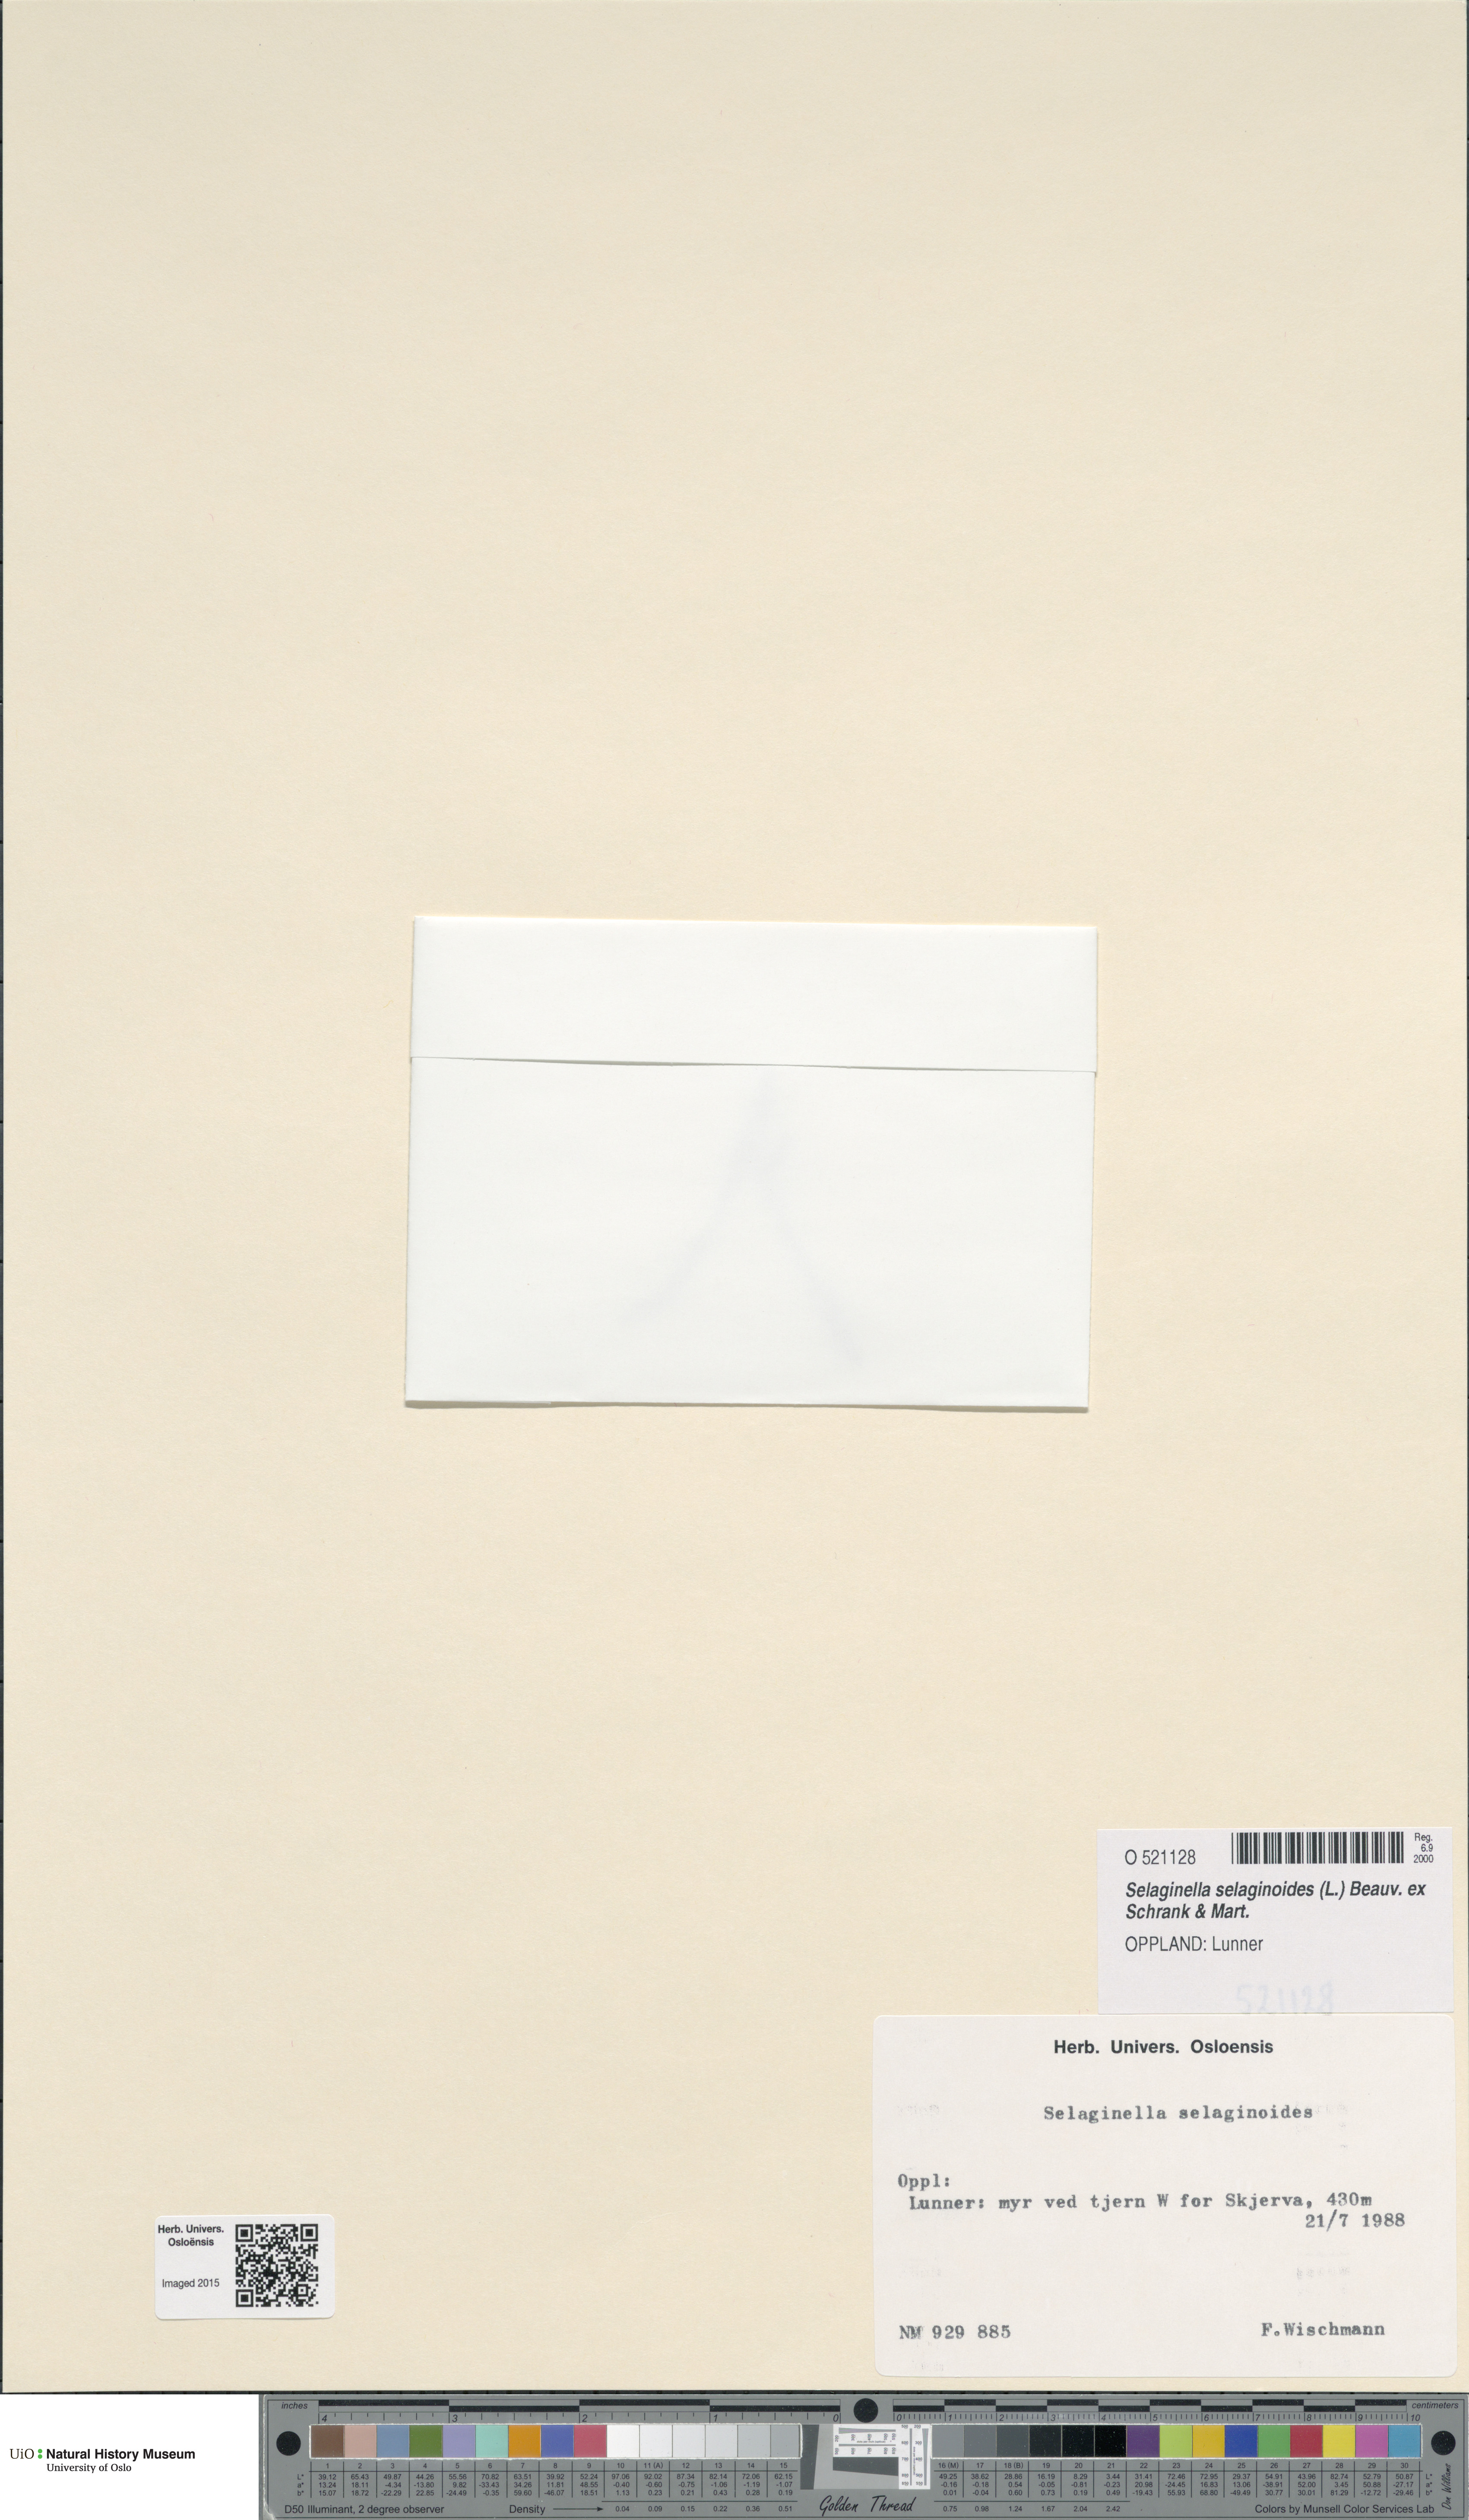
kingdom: Plantae
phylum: Tracheophyta
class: Lycopodiopsida
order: Selaginellales
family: Selaginellaceae
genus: Selaginella
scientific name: Selaginella selaginoides
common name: Prickly mountain-moss
